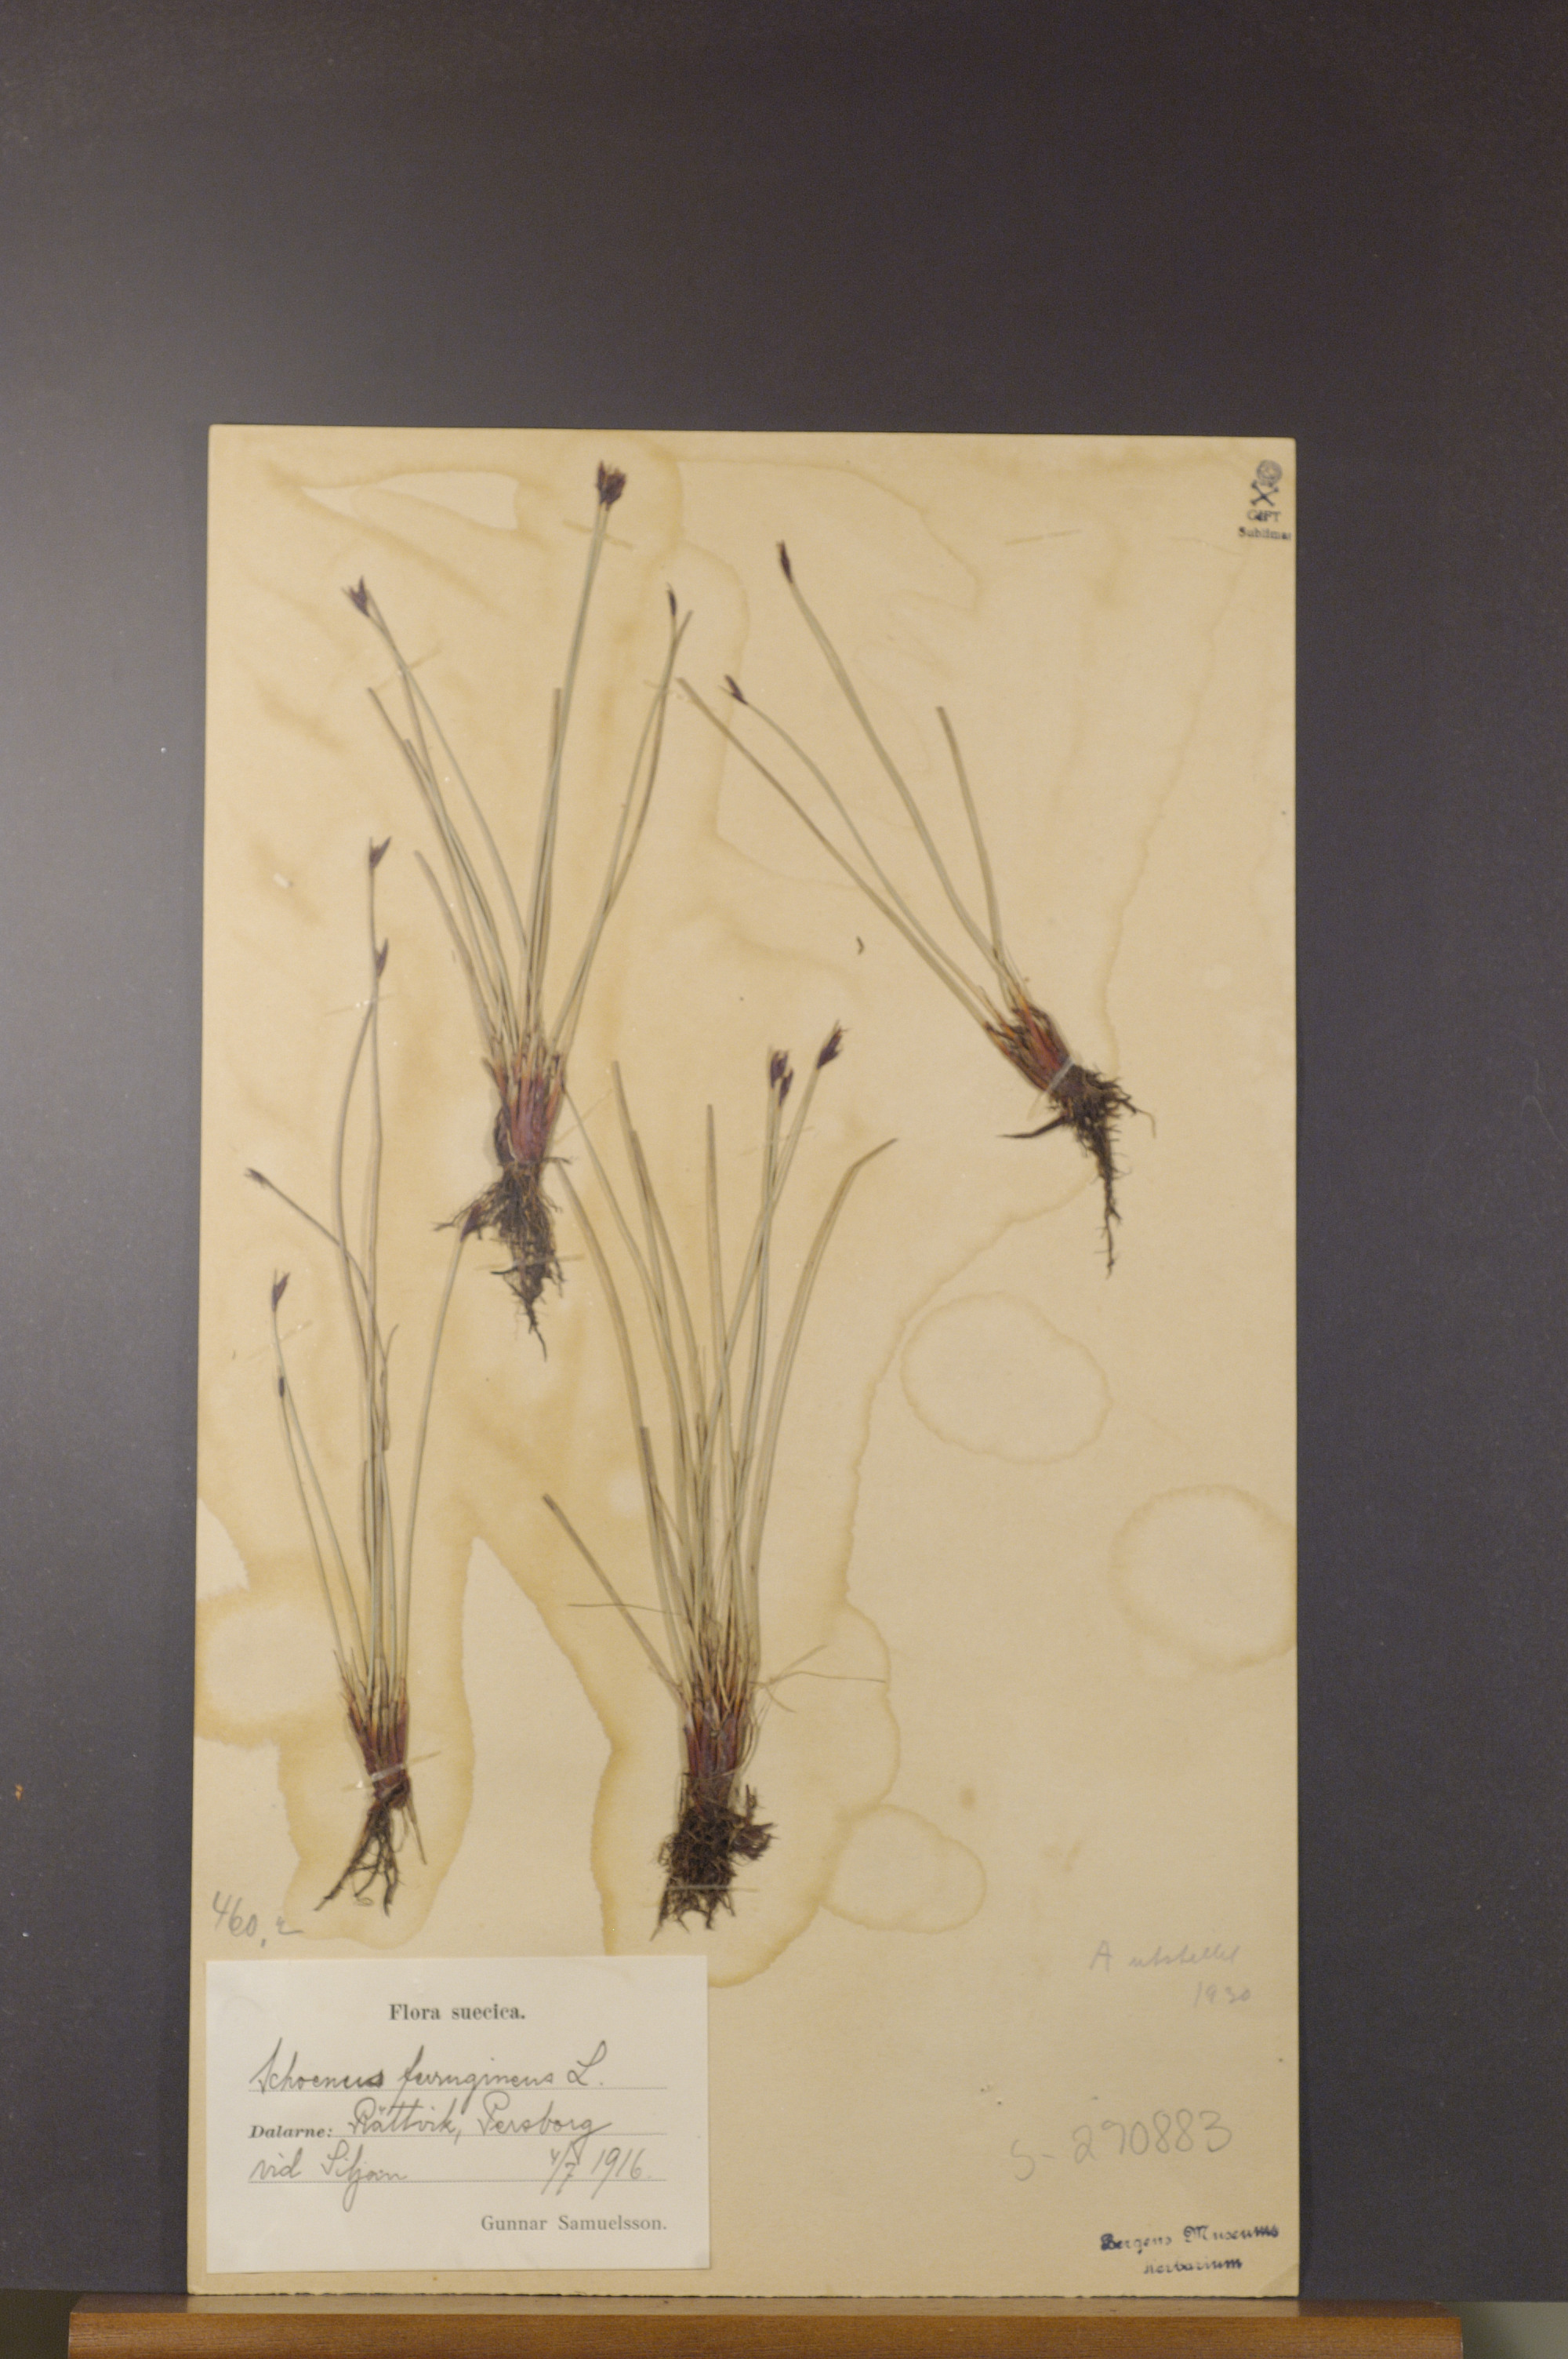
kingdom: Plantae
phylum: Tracheophyta
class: Liliopsida
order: Poales
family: Cyperaceae
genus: Schoenus
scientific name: Schoenus ferrugineus
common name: Brown bog-rush
